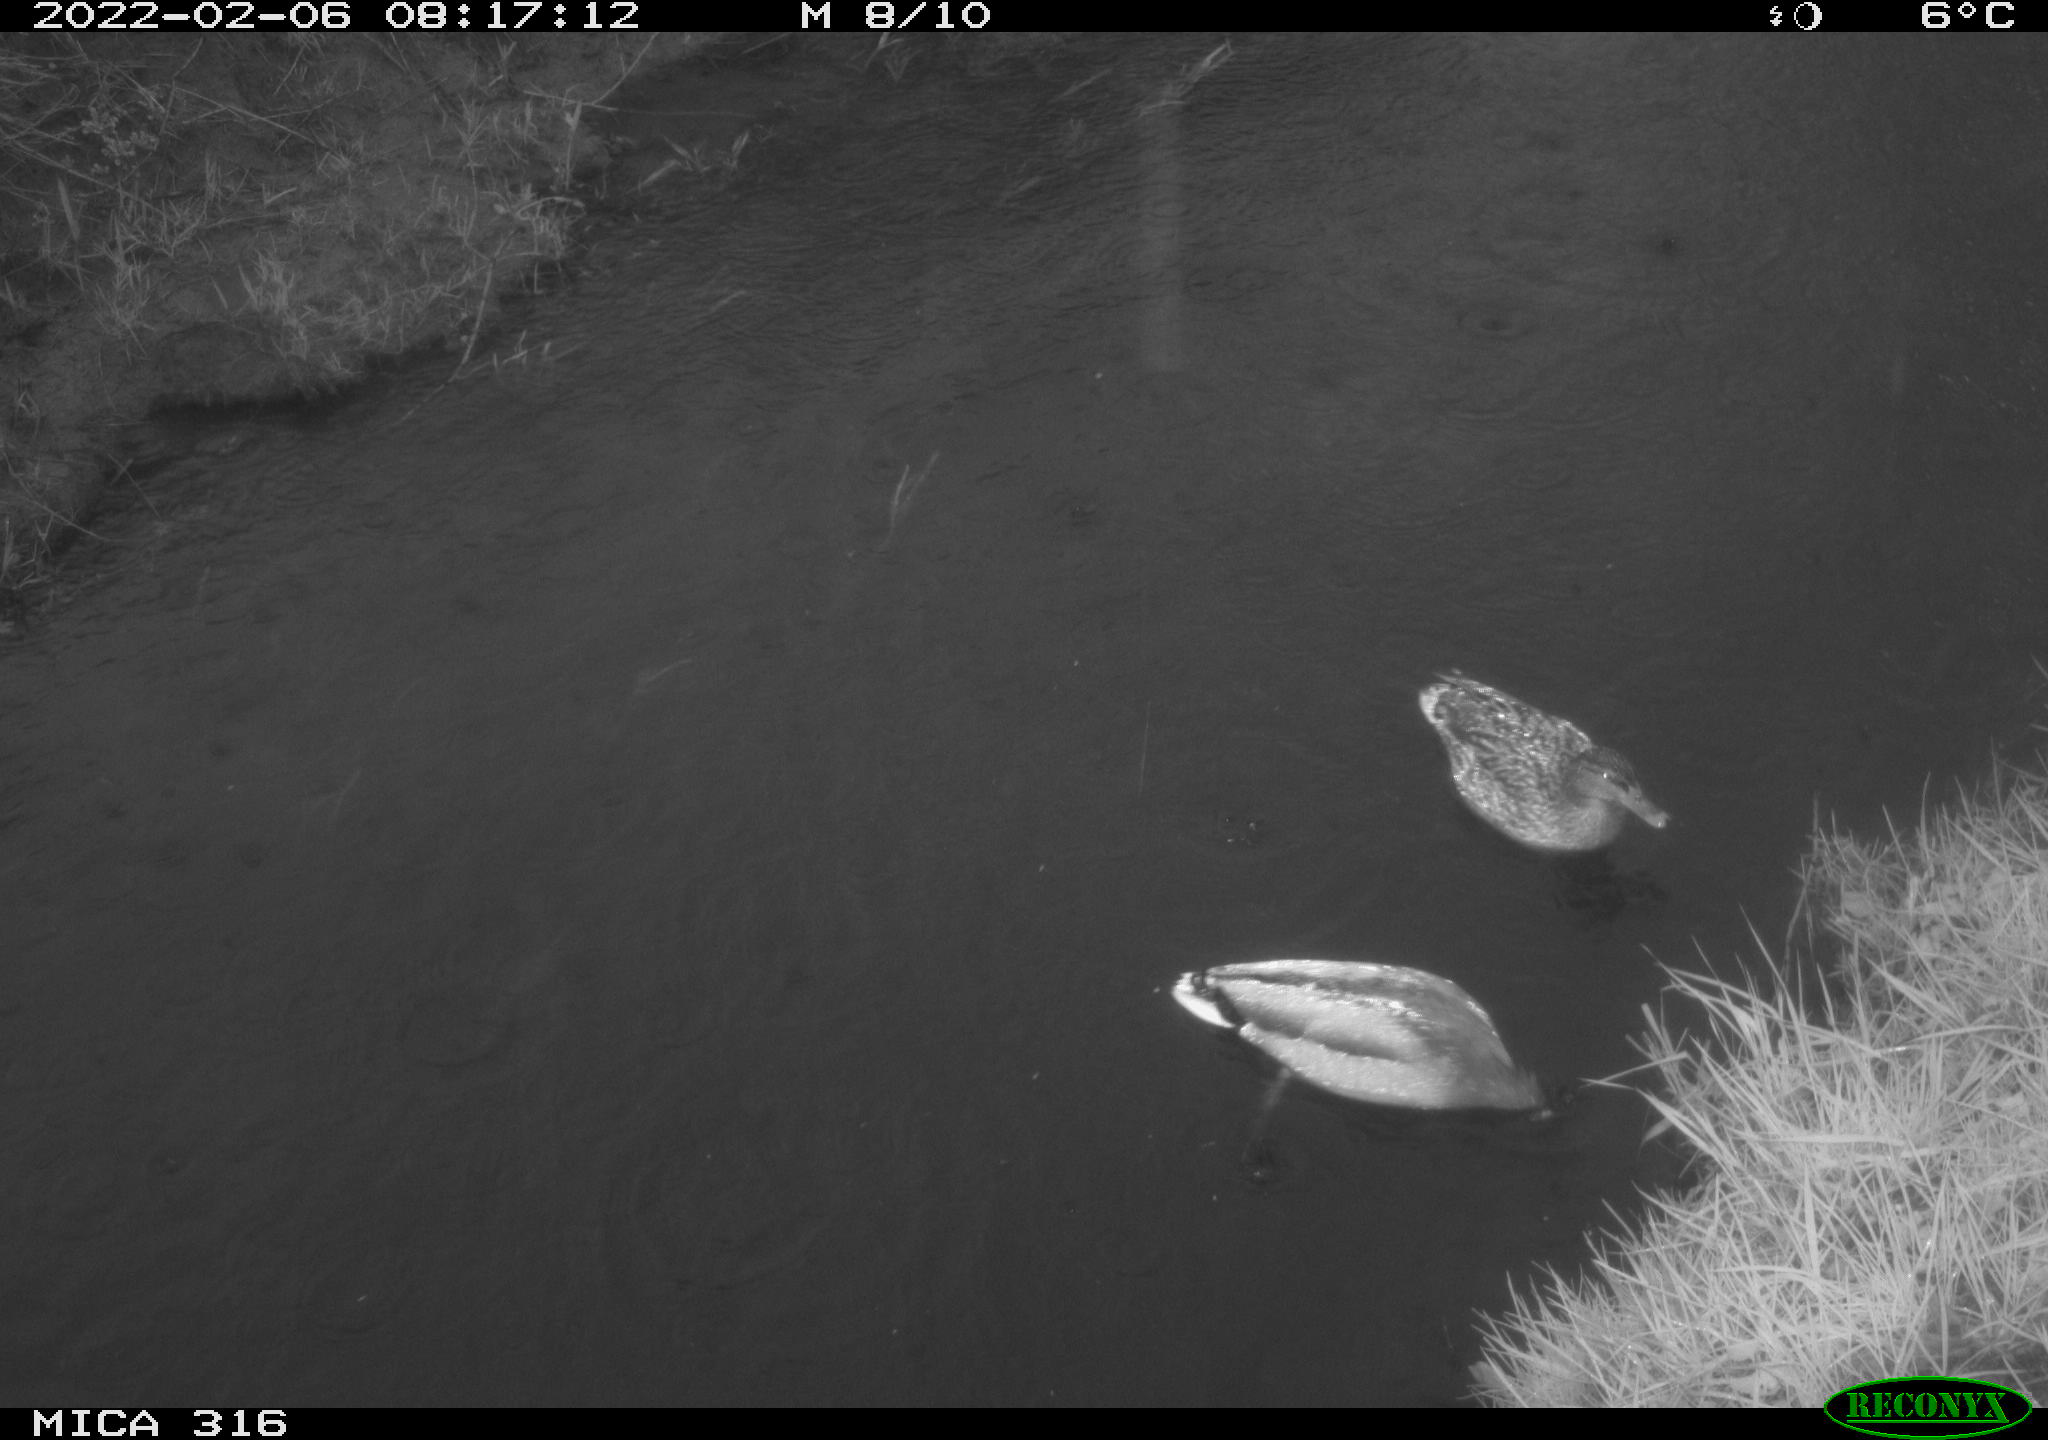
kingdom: Animalia
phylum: Chordata
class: Aves
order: Anseriformes
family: Anatidae
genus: Anas
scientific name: Anas platyrhynchos
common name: Mallard
